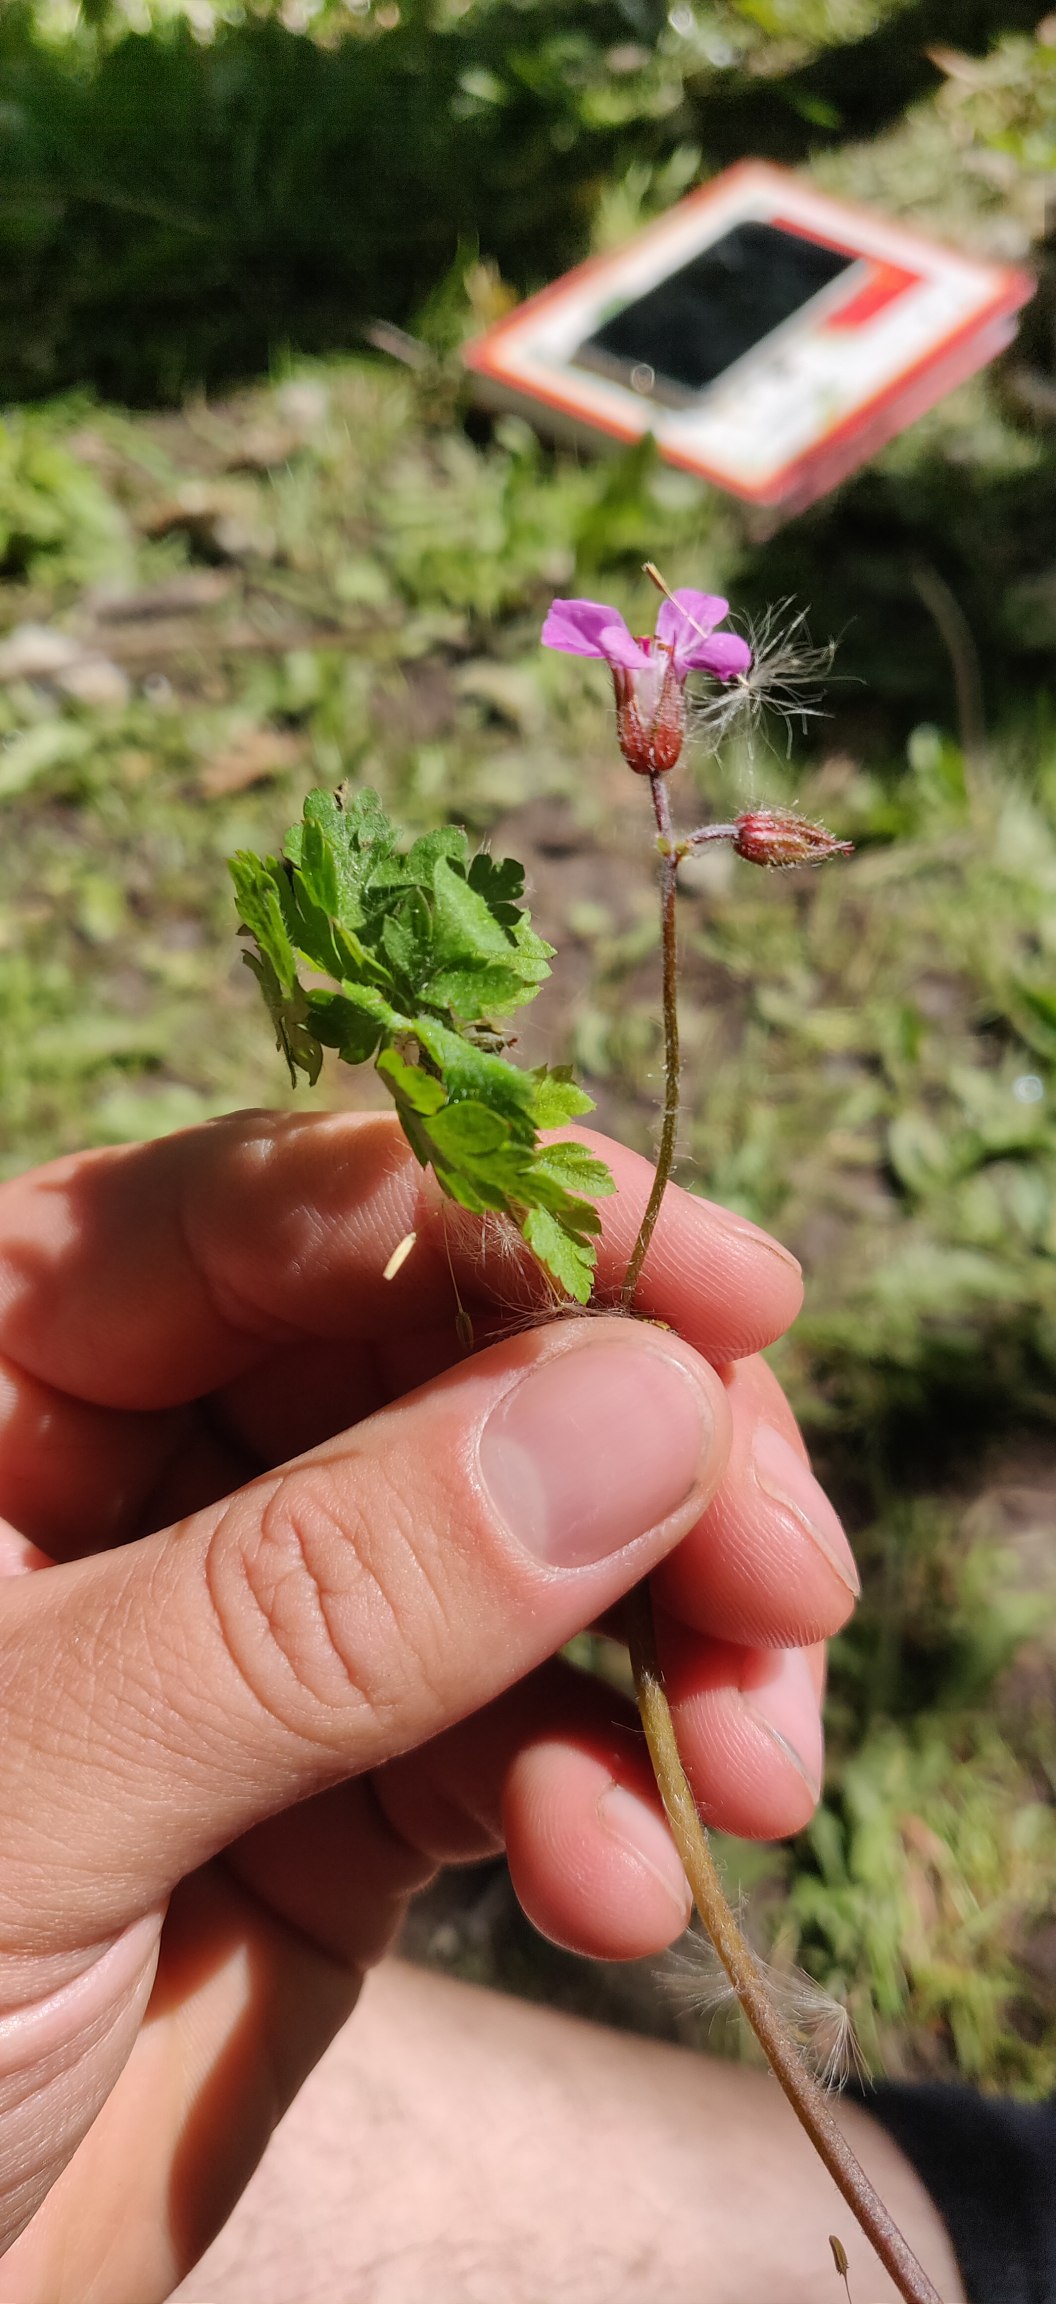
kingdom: Plantae
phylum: Tracheophyta
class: Magnoliopsida
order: Geraniales
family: Geraniaceae
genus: Geranium
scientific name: Geranium robertianum
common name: Stinkende storkenæb
